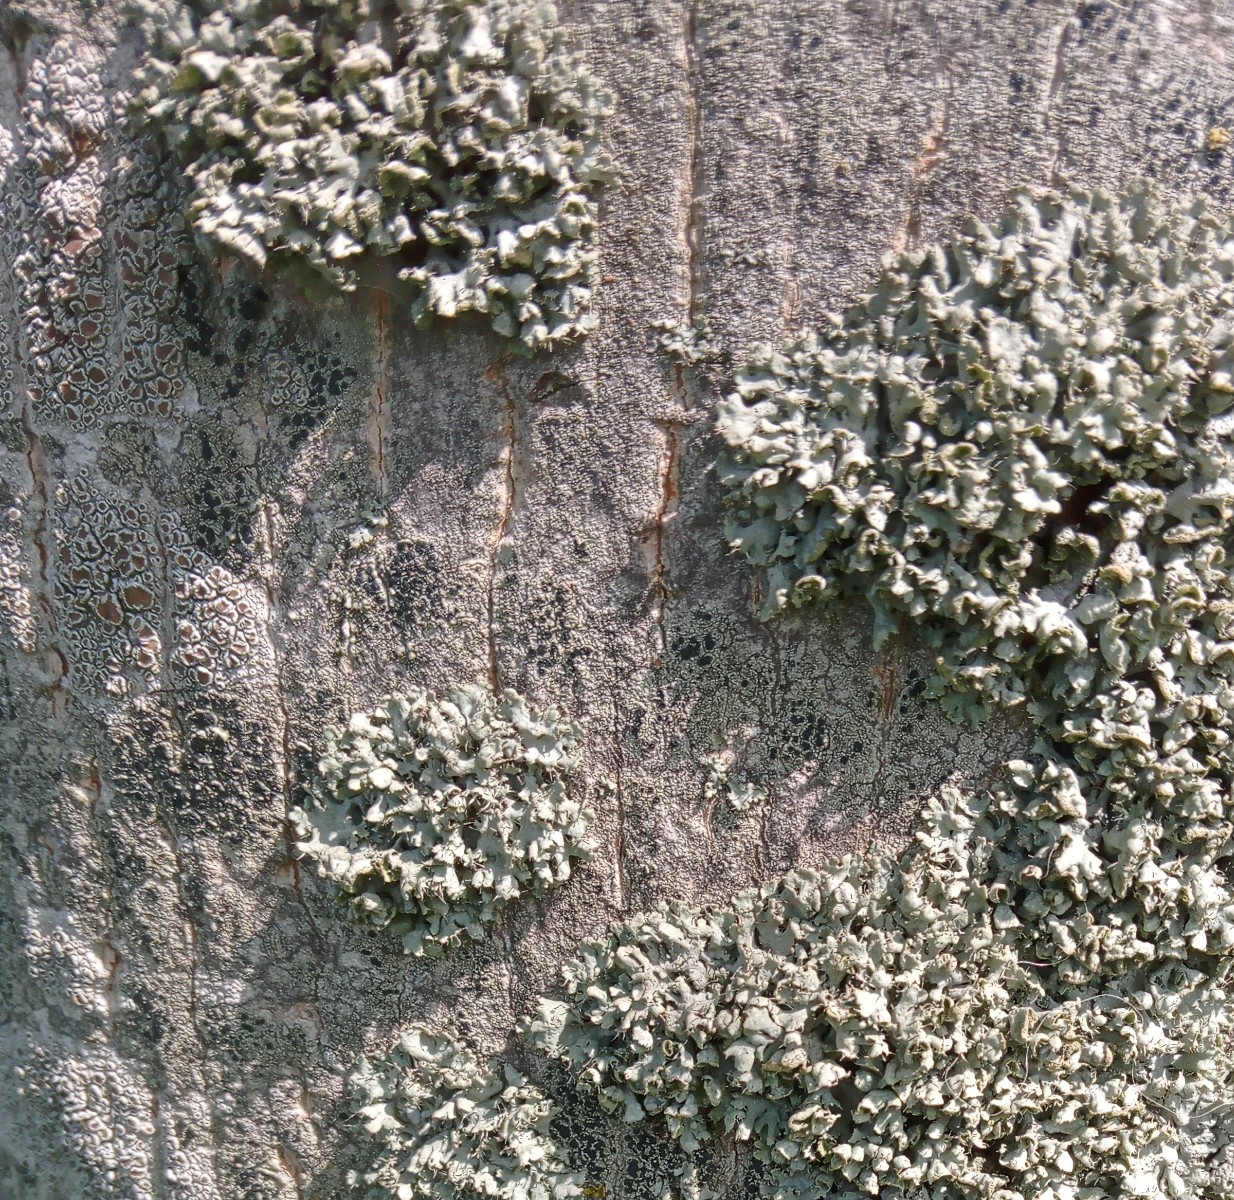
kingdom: Fungi
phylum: Ascomycota
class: Lecanoromycetes
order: Caliciales
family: Physciaceae
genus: Physcia
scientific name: Physcia adscendens
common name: hætte-rosetlav
